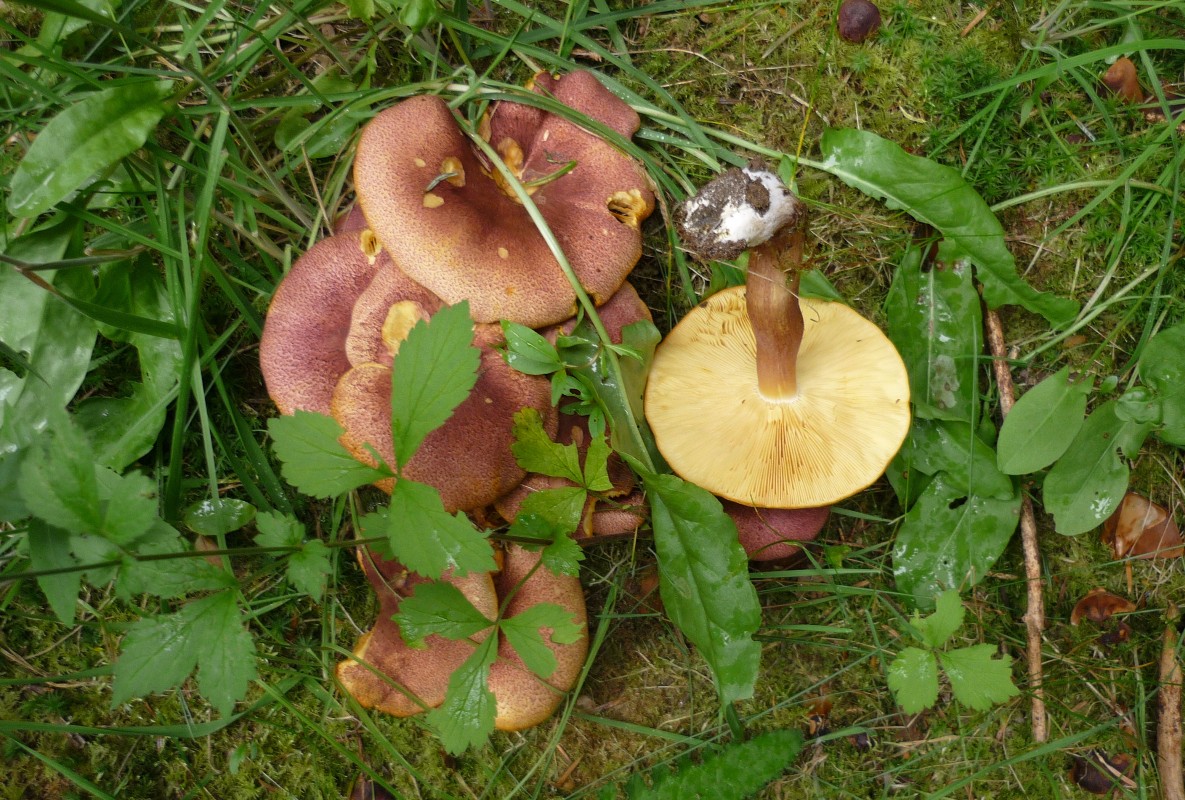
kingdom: Fungi
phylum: Basidiomycota
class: Agaricomycetes
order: Agaricales
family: Tricholomataceae
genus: Tricholomopsis
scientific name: Tricholomopsis rutilans
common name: purpur-væbnerhat
